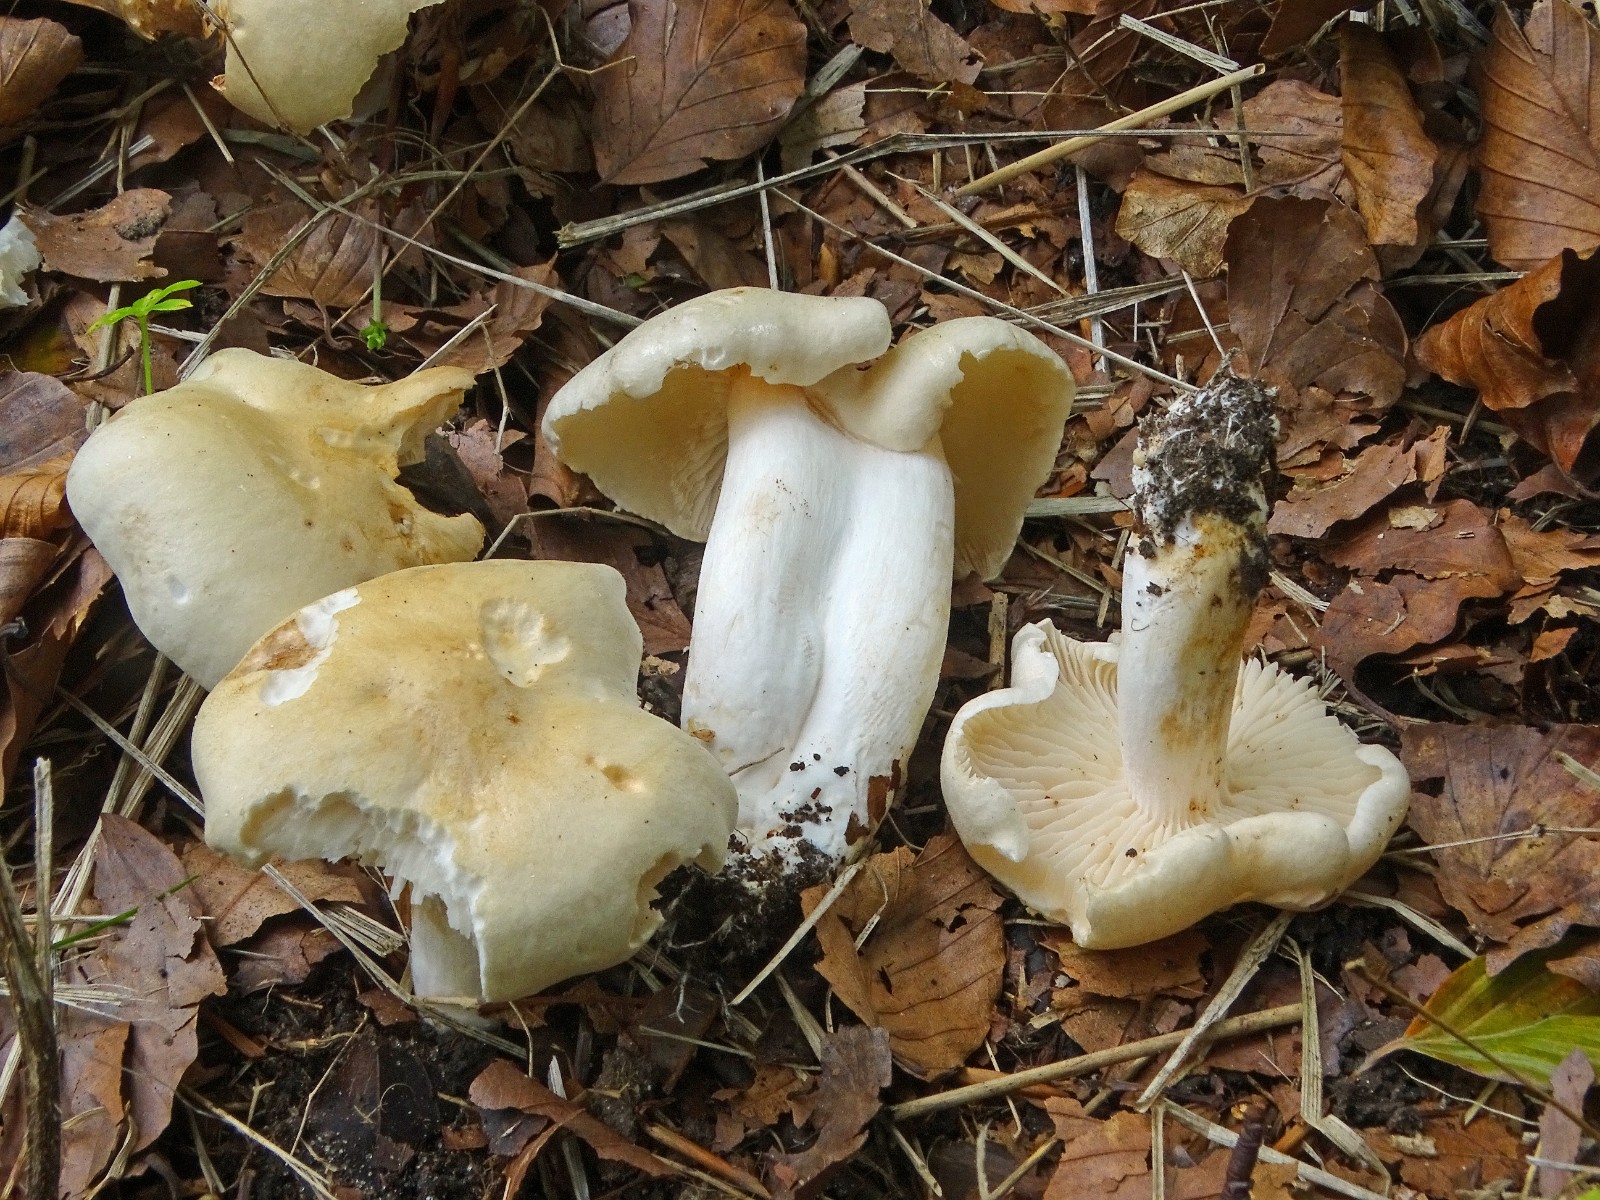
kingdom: Fungi
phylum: Basidiomycota
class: Agaricomycetes
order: Agaricales
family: Tricholomataceae
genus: Tricholoma
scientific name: Tricholoma lascivum
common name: stinkende ridderhat
